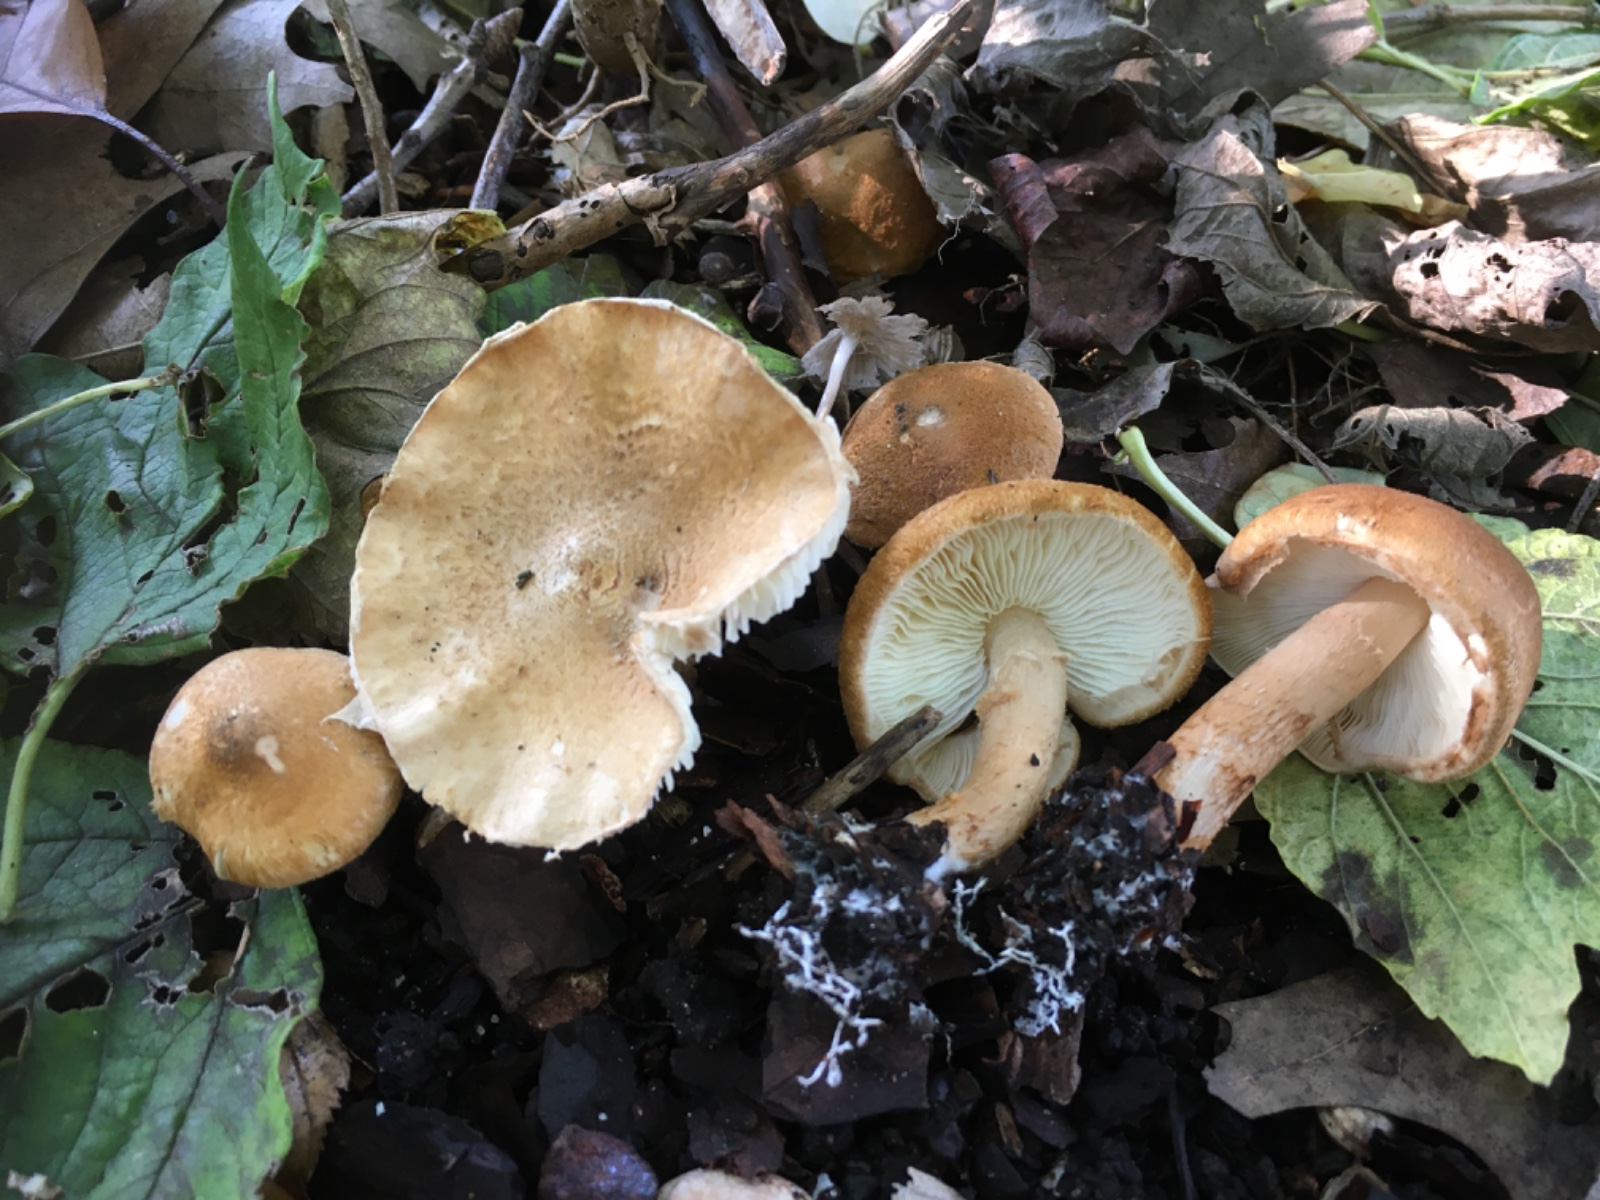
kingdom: Fungi
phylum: Basidiomycota
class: Agaricomycetes
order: Agaricales
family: Agaricaceae
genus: Leucocoprinus
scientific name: Leucocoprinus straminellus
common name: rustbrun parasolhat
